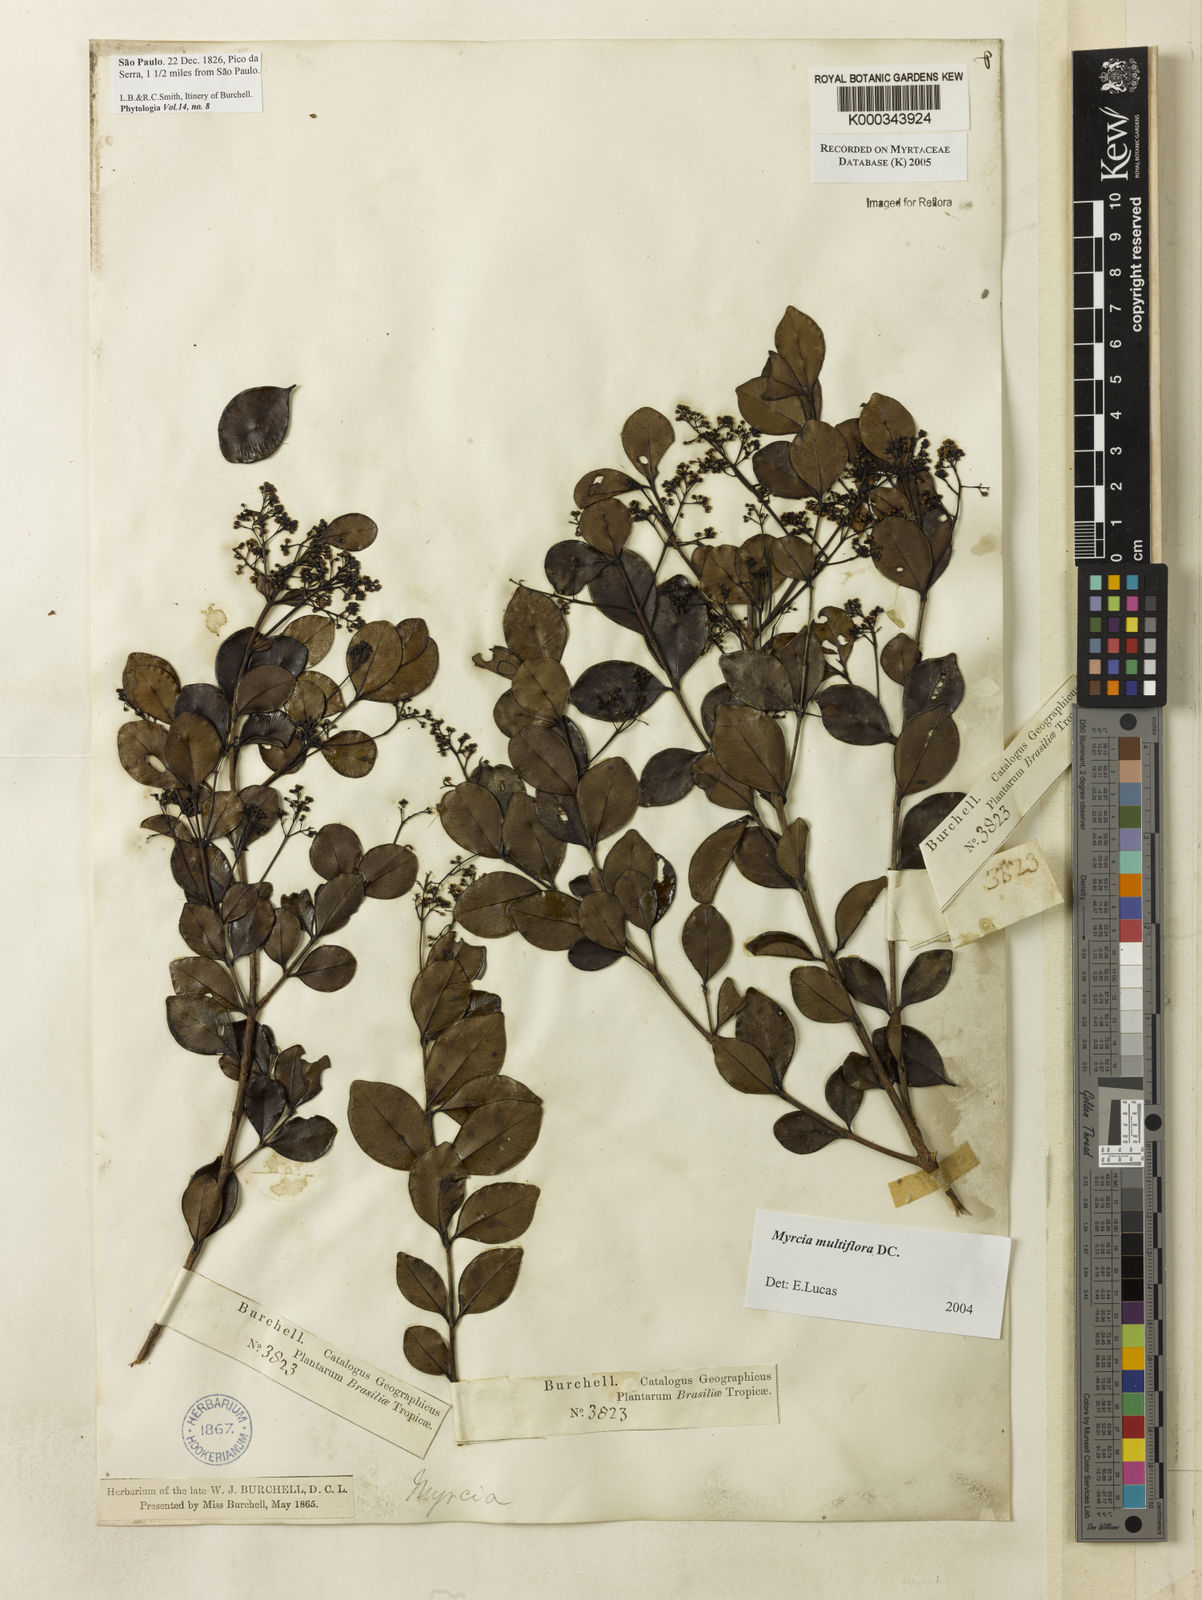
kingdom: Plantae
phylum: Tracheophyta
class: Magnoliopsida
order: Myrtales
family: Myrtaceae
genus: Myrcia
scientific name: Myrcia multiflora
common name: Pedra hume
